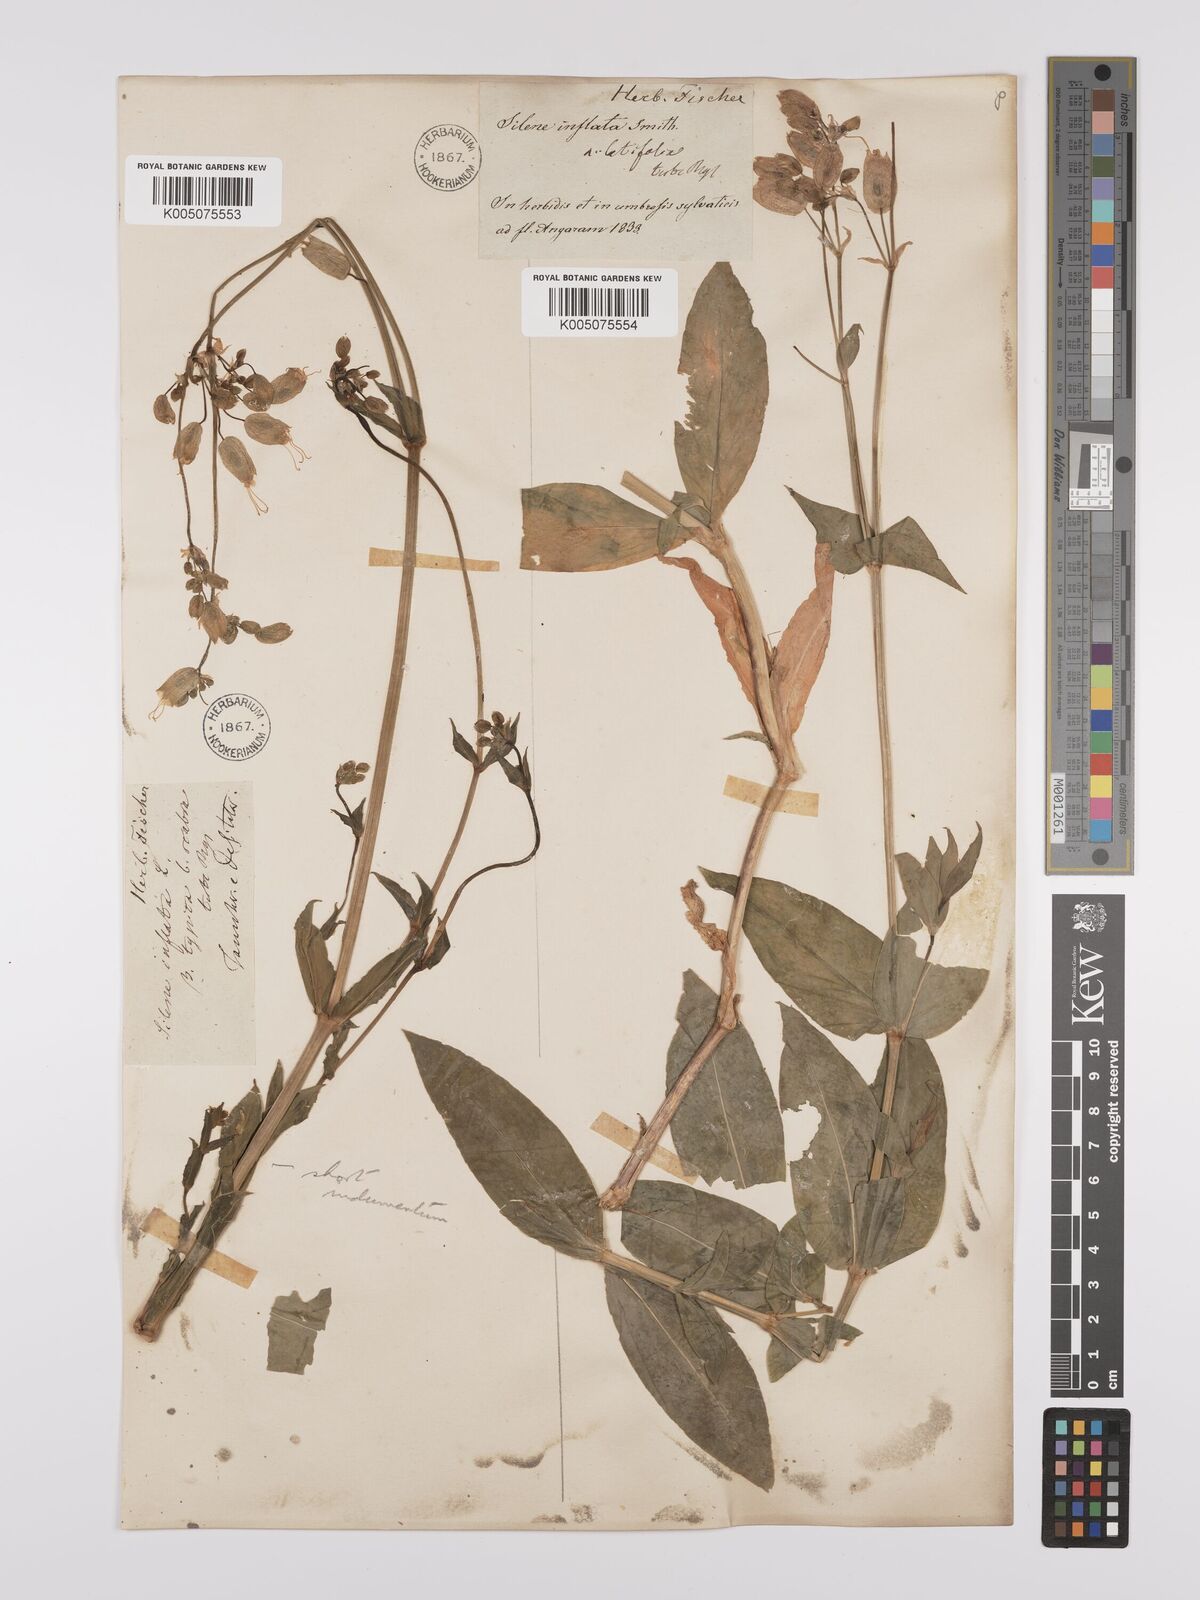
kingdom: Plantae
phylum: Tracheophyta
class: Magnoliopsida
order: Caryophyllales
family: Caryophyllaceae
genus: Silene
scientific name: Silene vulgaris
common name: Bladder campion
